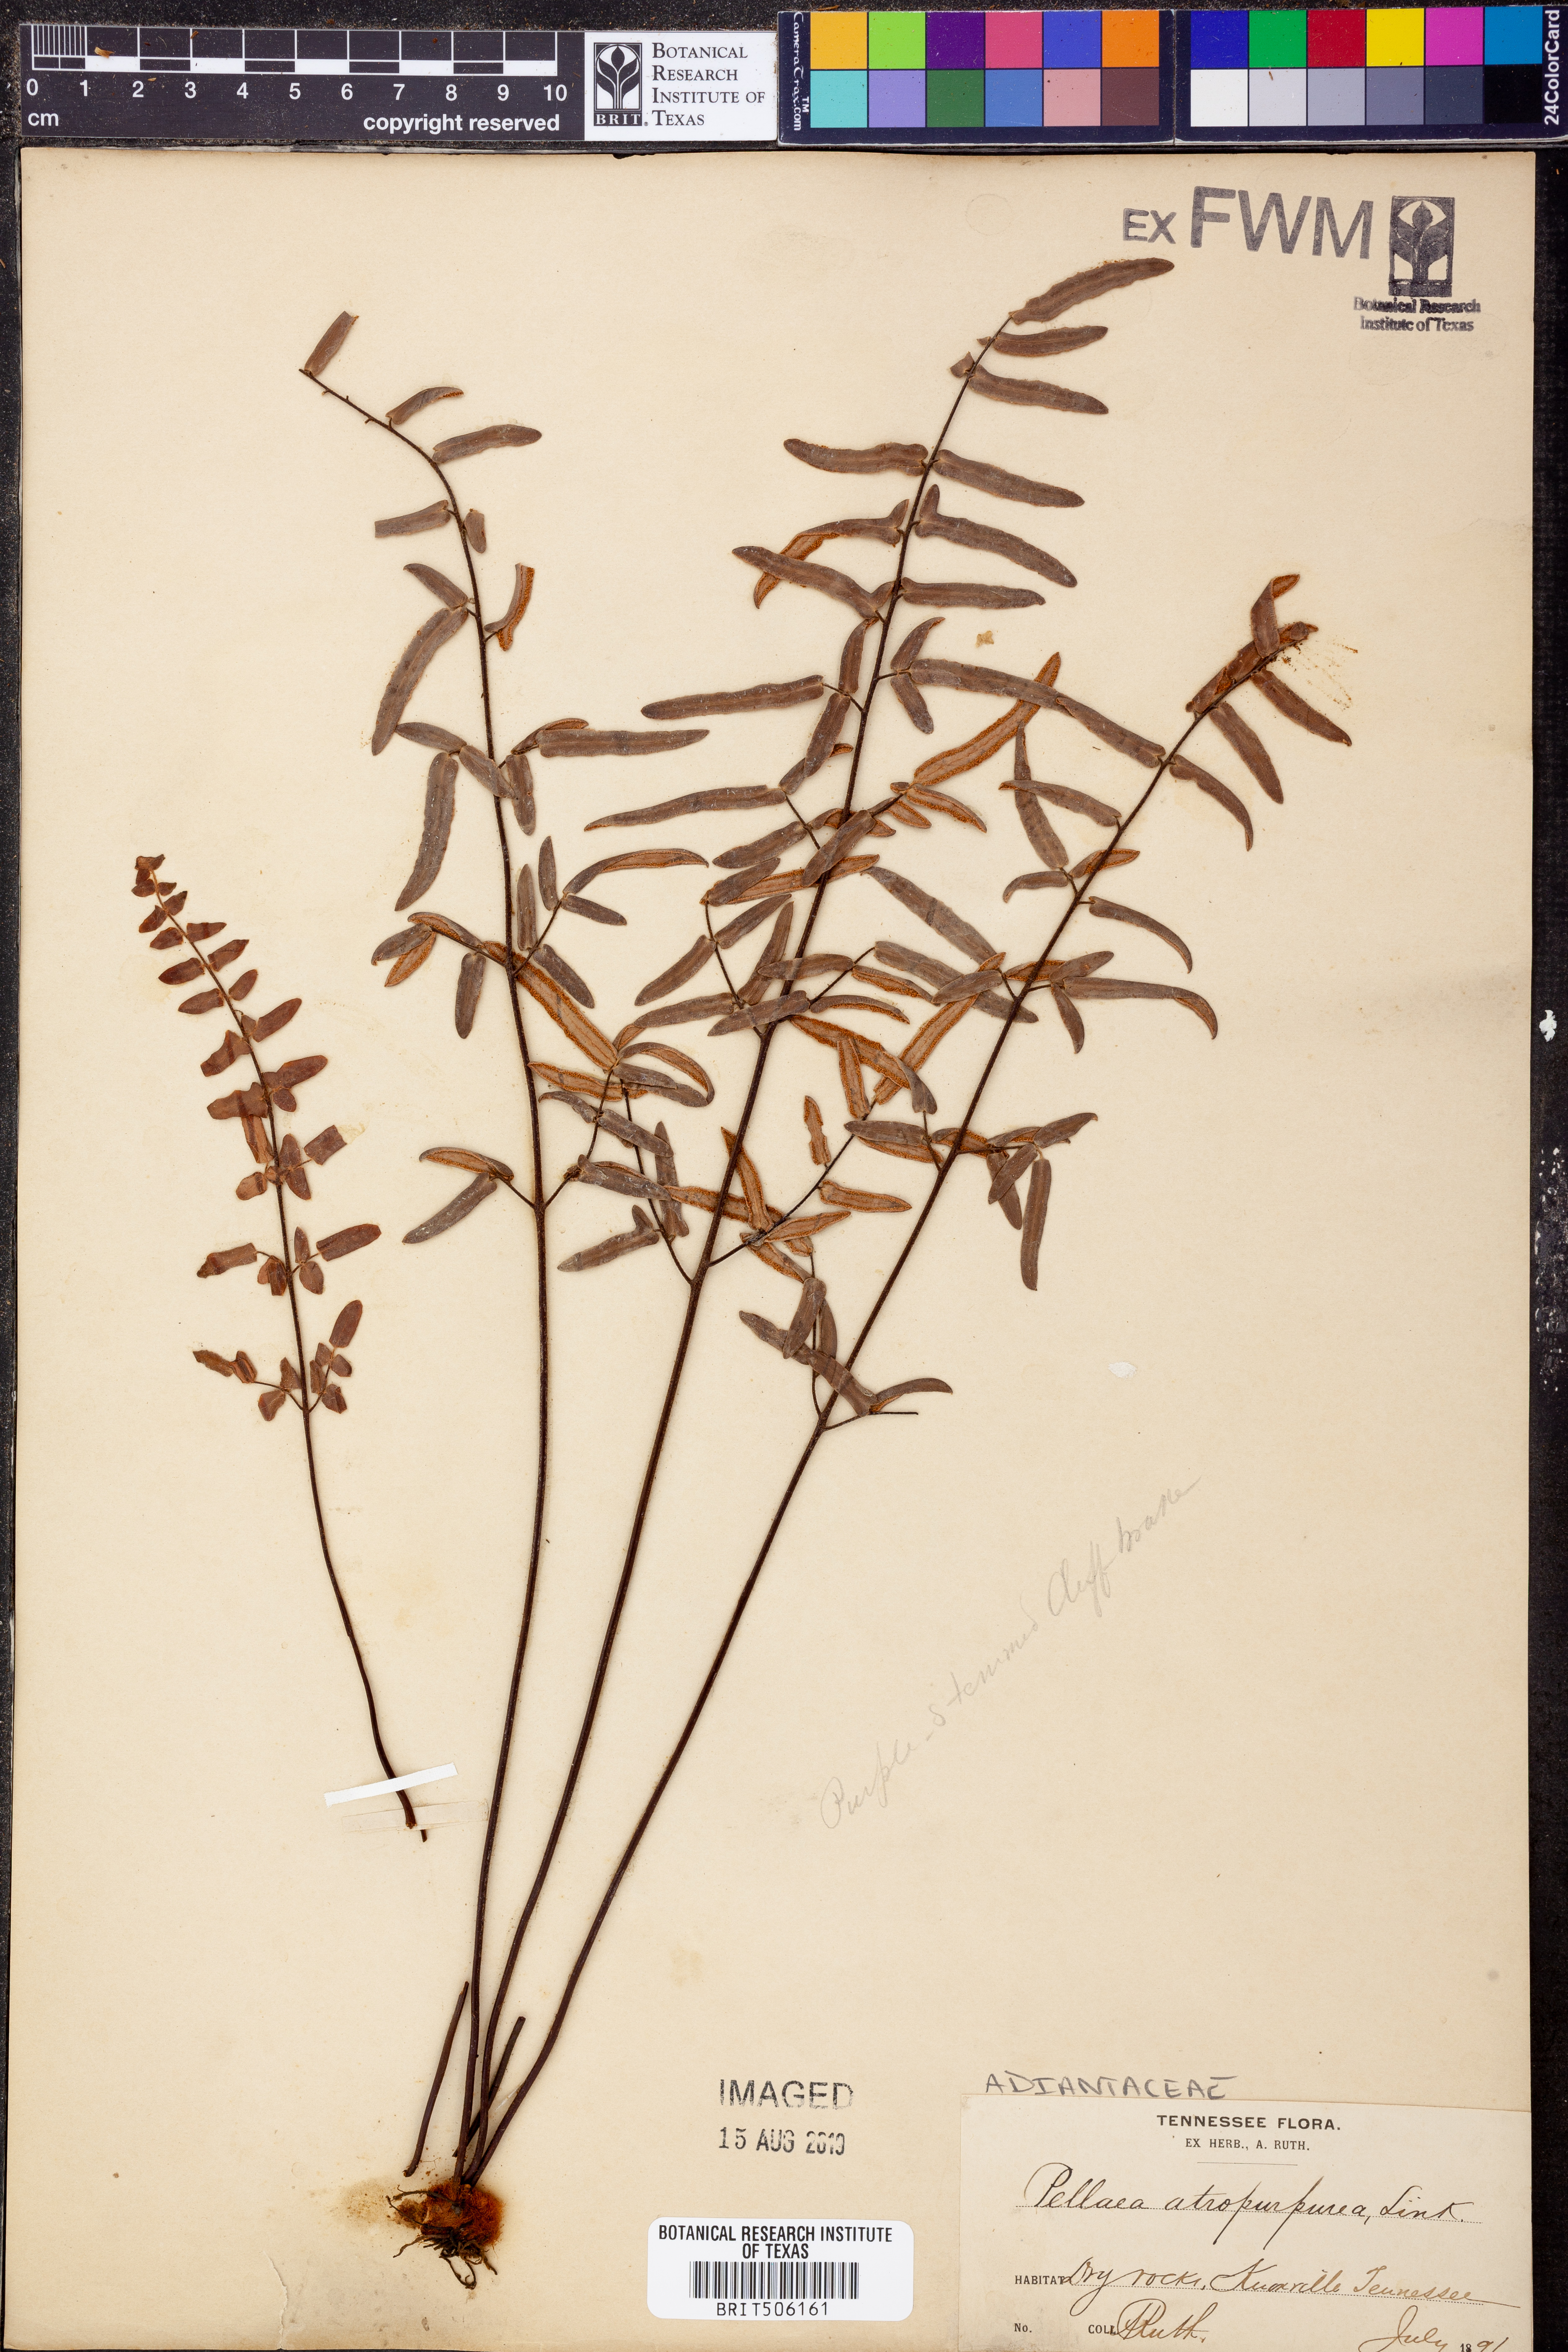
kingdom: Plantae
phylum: Tracheophyta
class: Polypodiopsida
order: Polypodiales
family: Pteridaceae
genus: Pellaea
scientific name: Pellaea atropurpurea
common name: Hairy cliffbrake
